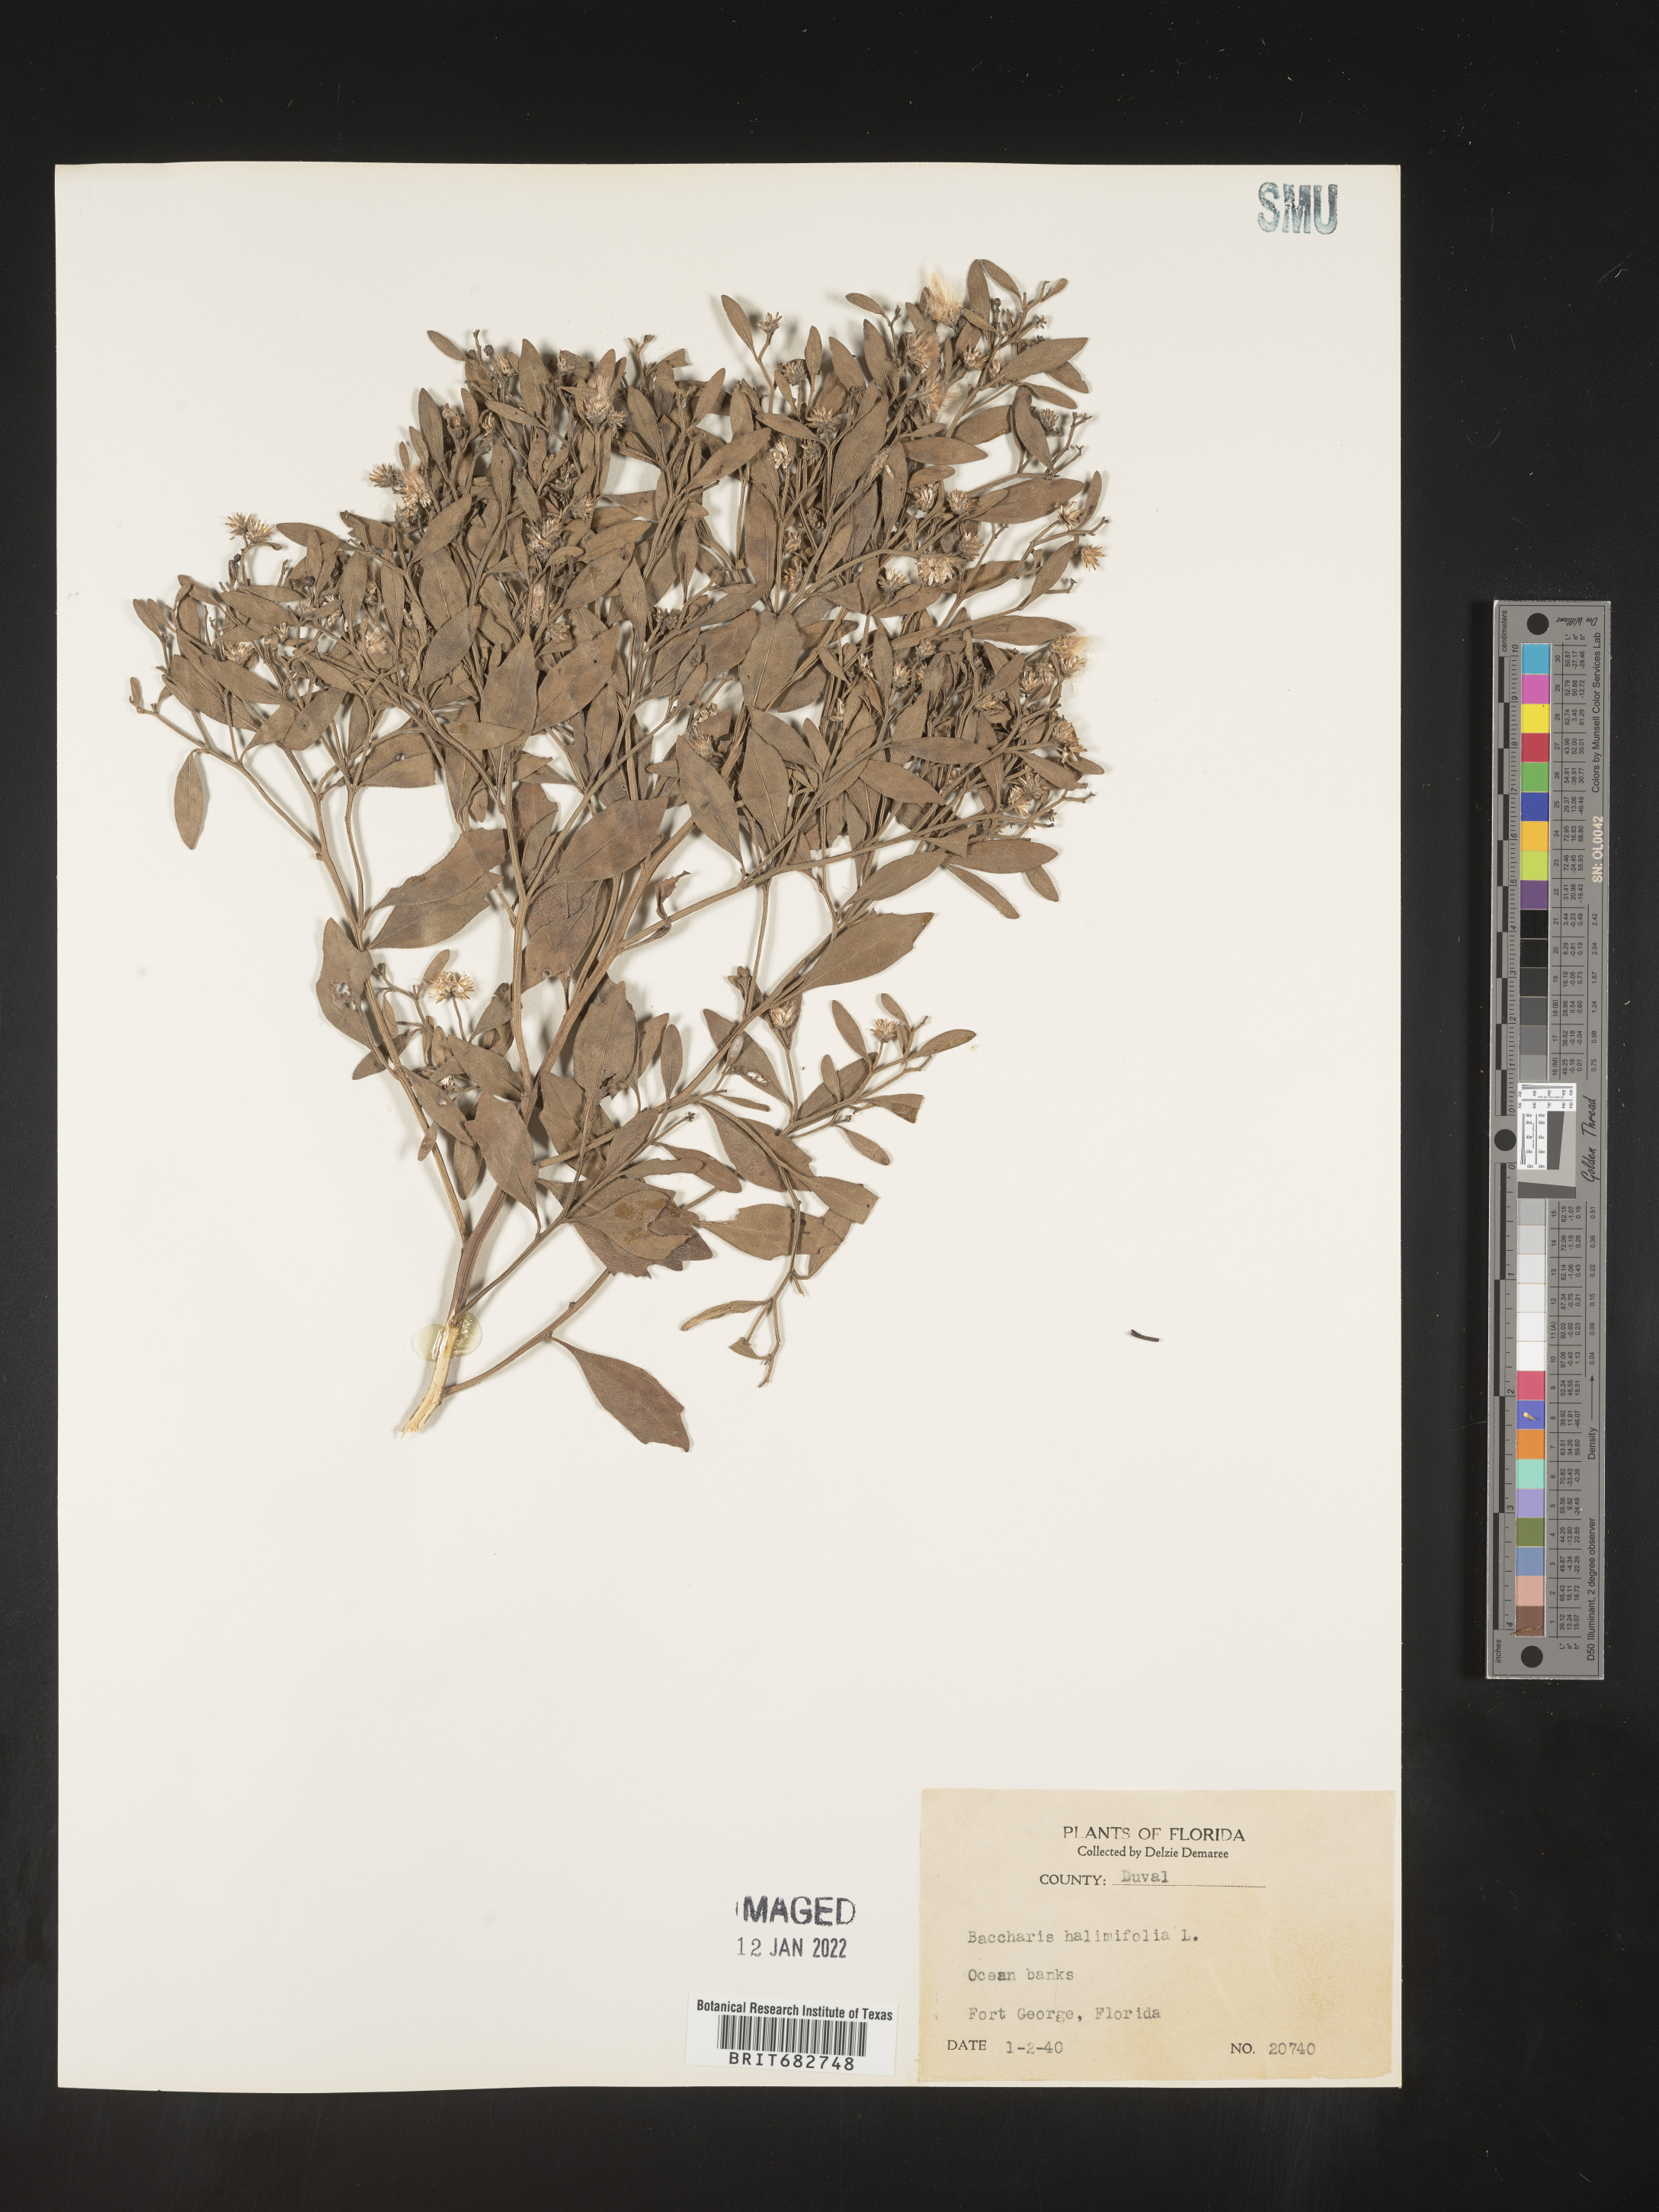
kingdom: Plantae
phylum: Tracheophyta
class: Magnoliopsida
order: Asterales
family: Asteraceae
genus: Nidorella
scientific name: Nidorella ivifolia
